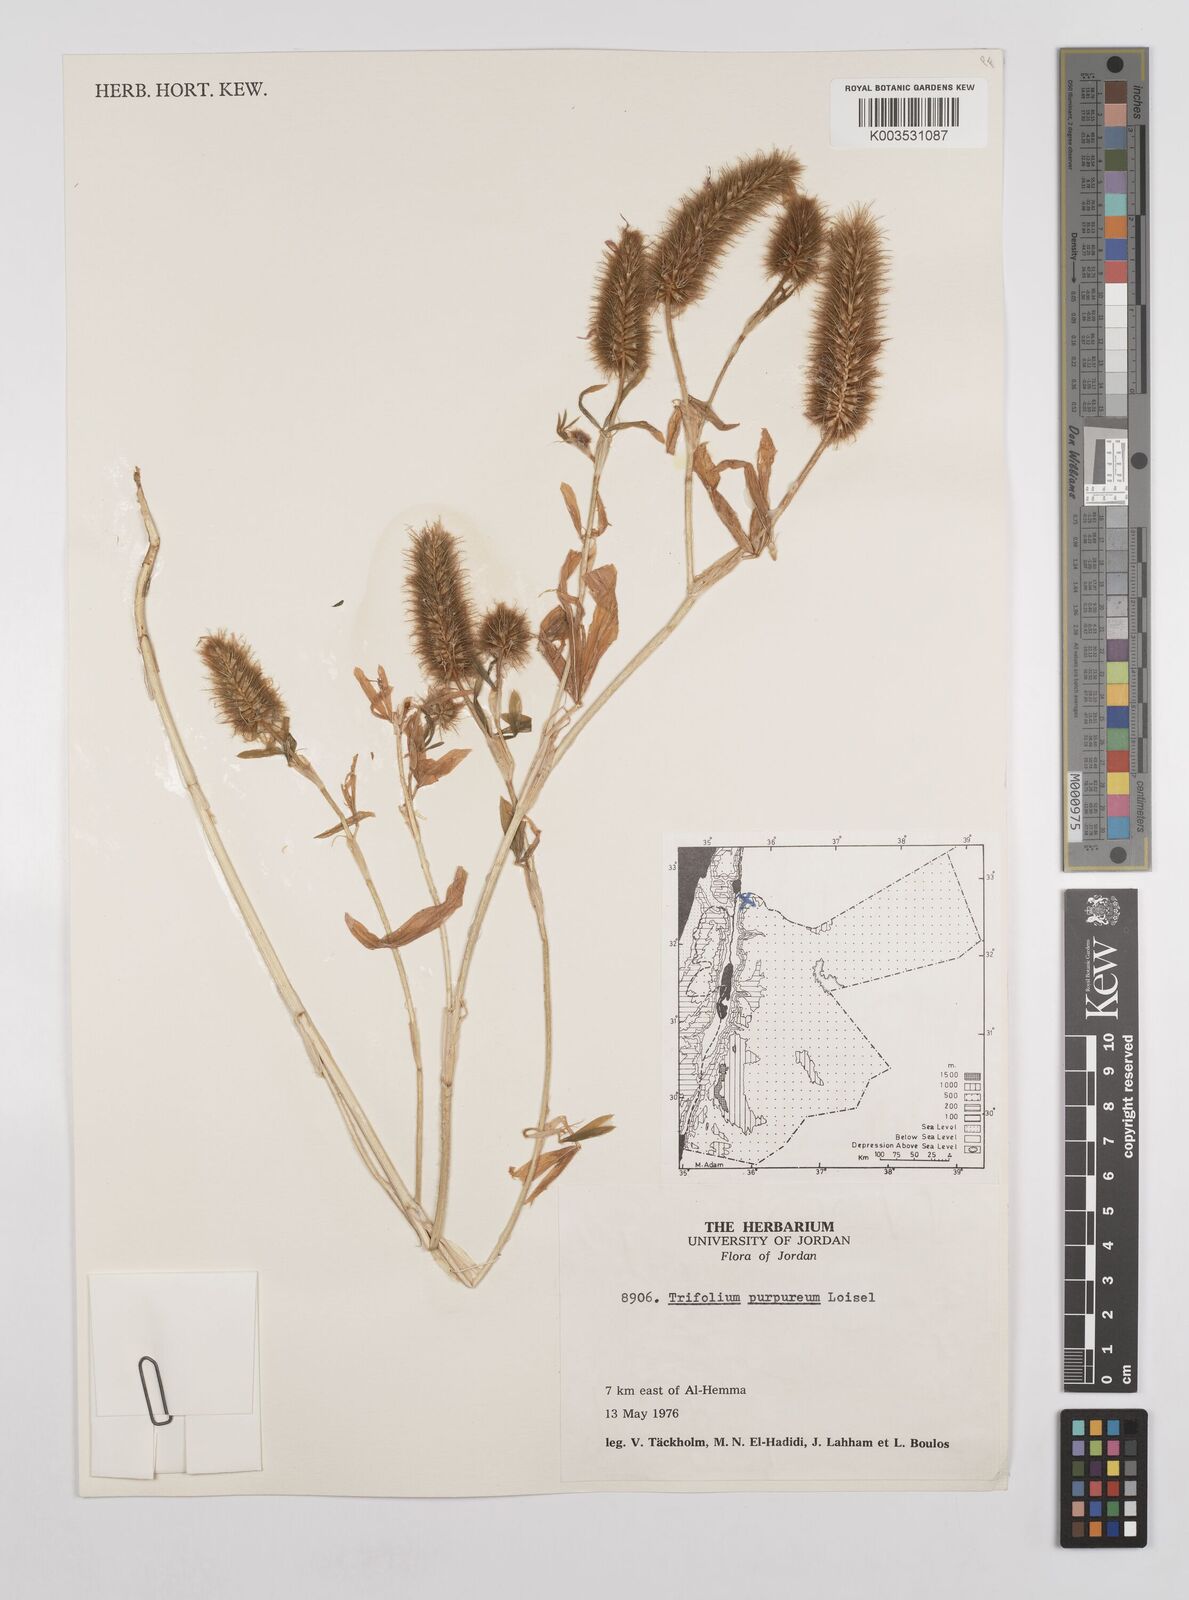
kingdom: Plantae
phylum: Tracheophyta
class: Magnoliopsida
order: Fabales
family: Fabaceae
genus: Trifolium
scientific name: Trifolium purpureum
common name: Purple clover
